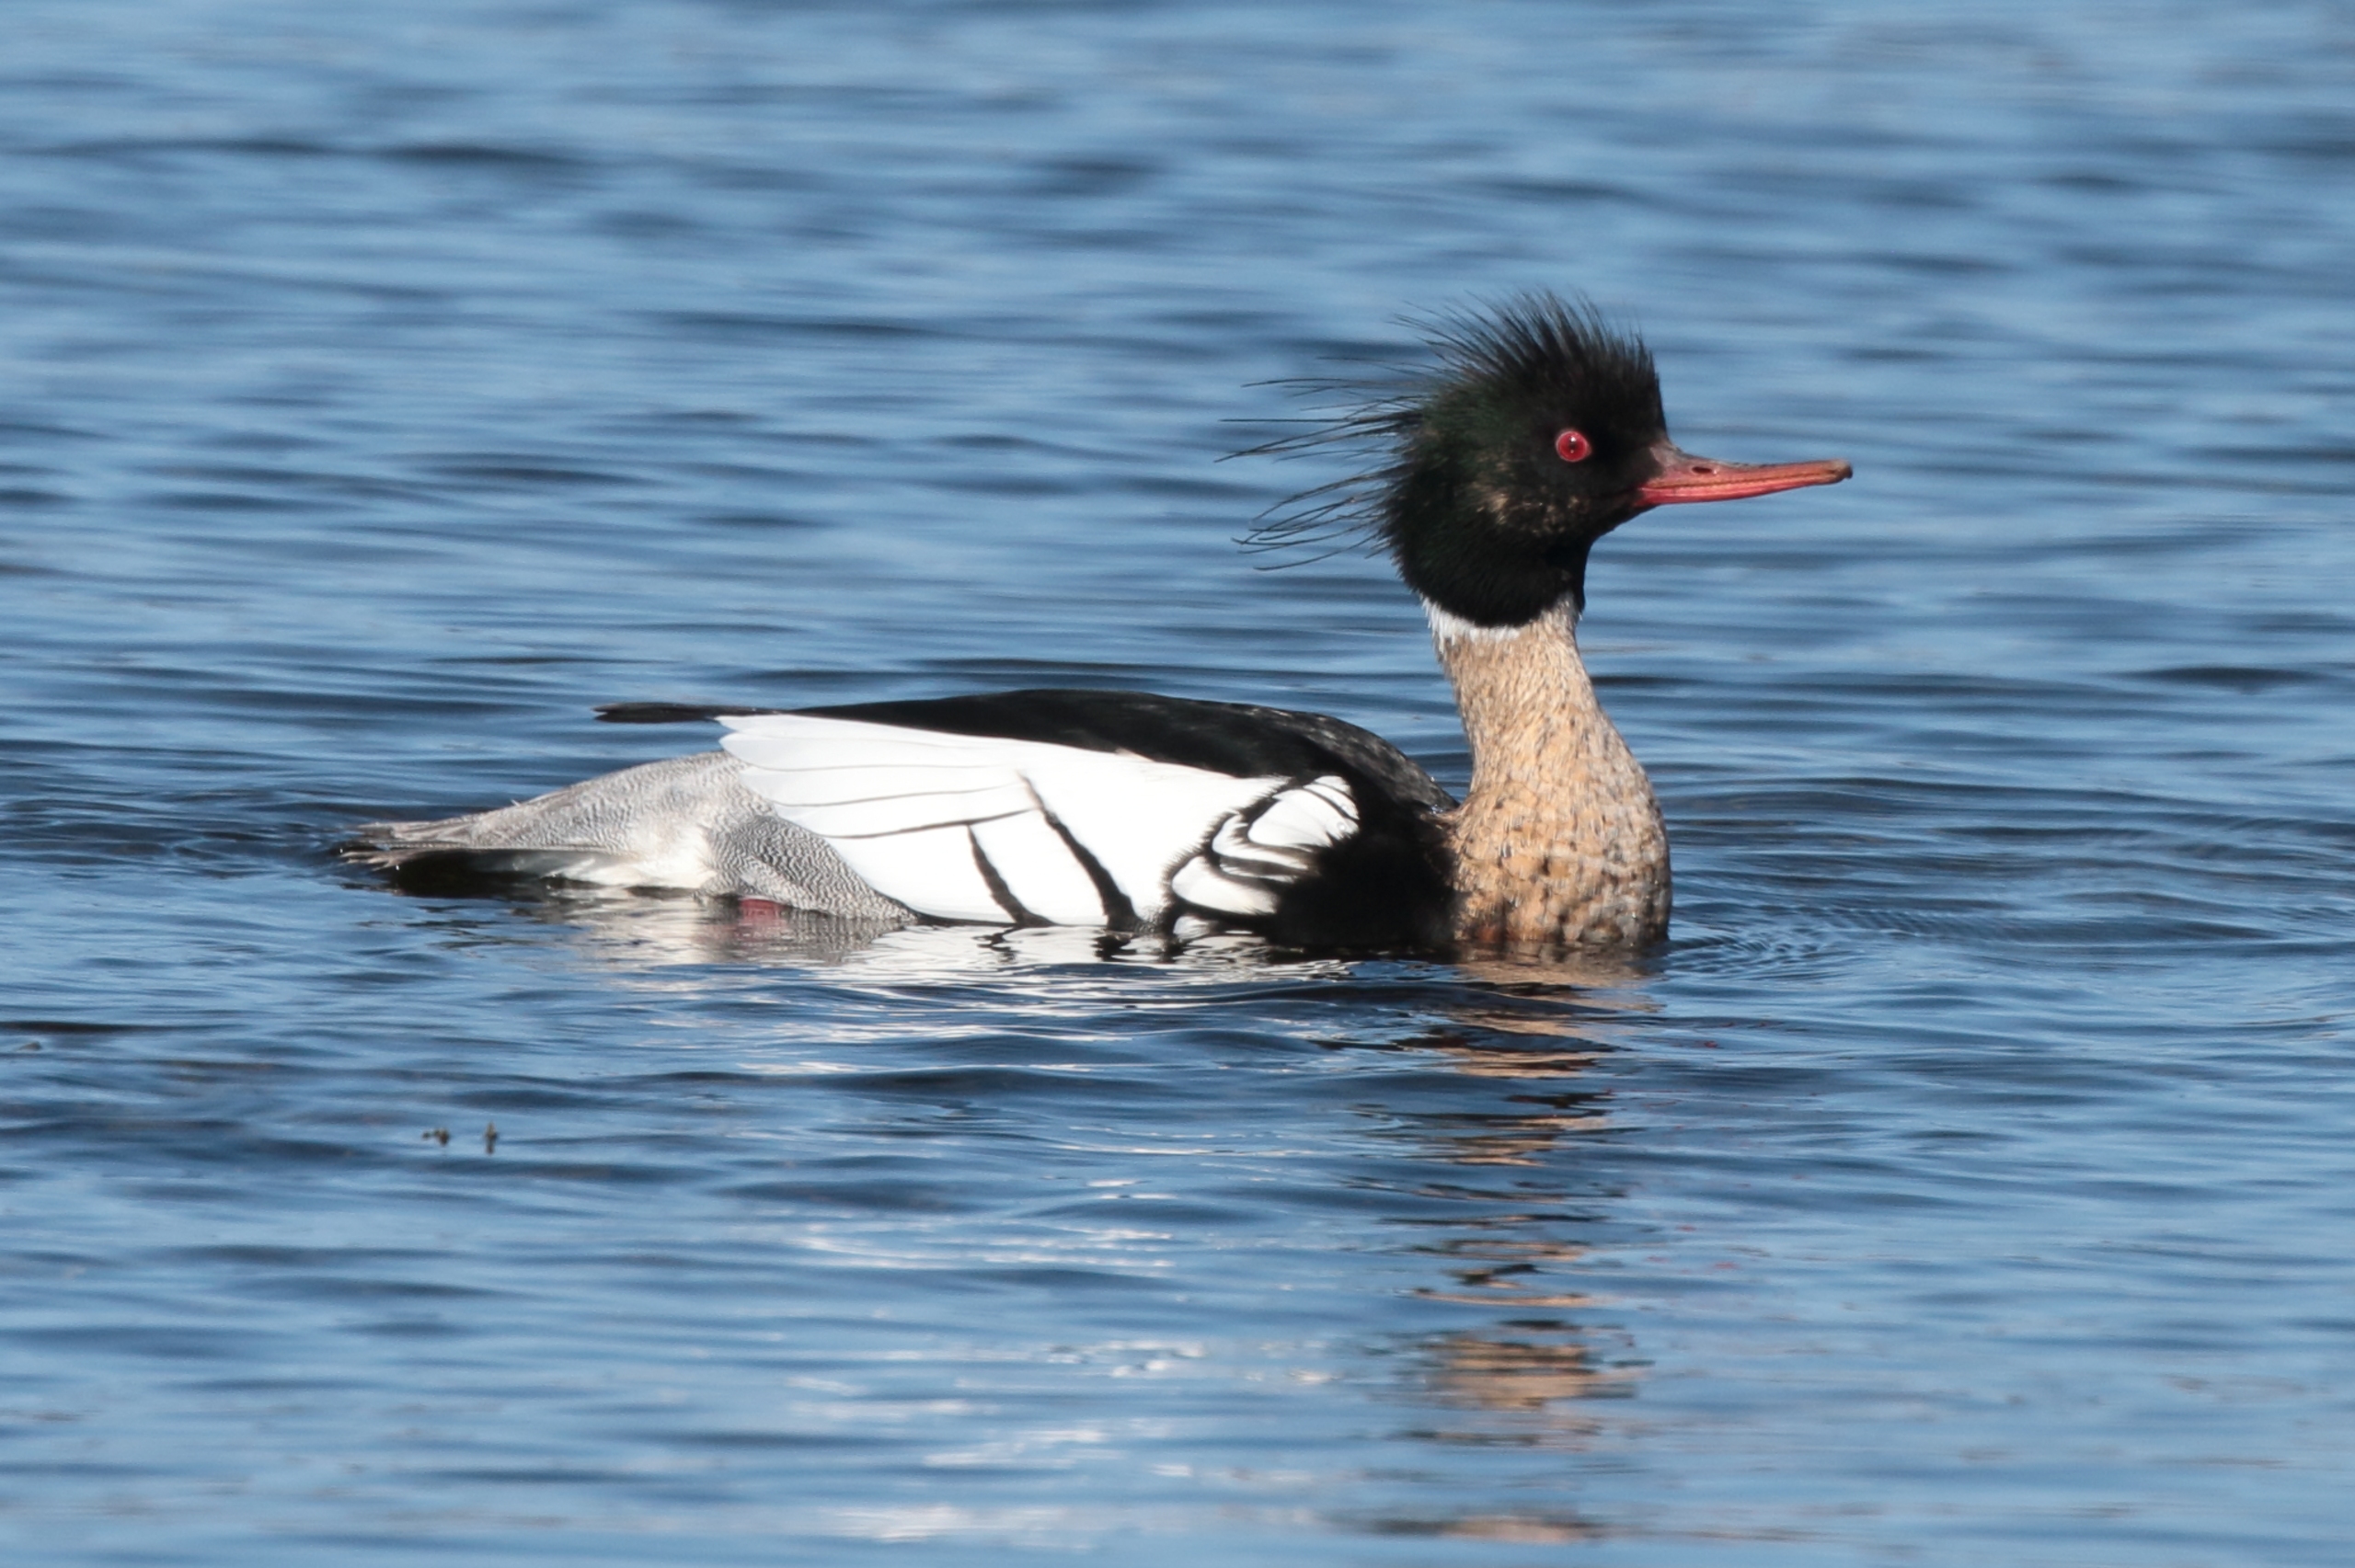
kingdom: Animalia
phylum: Chordata
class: Aves
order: Anseriformes
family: Anatidae
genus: Mergus
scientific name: Mergus serrator
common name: Toppet skallesluger
